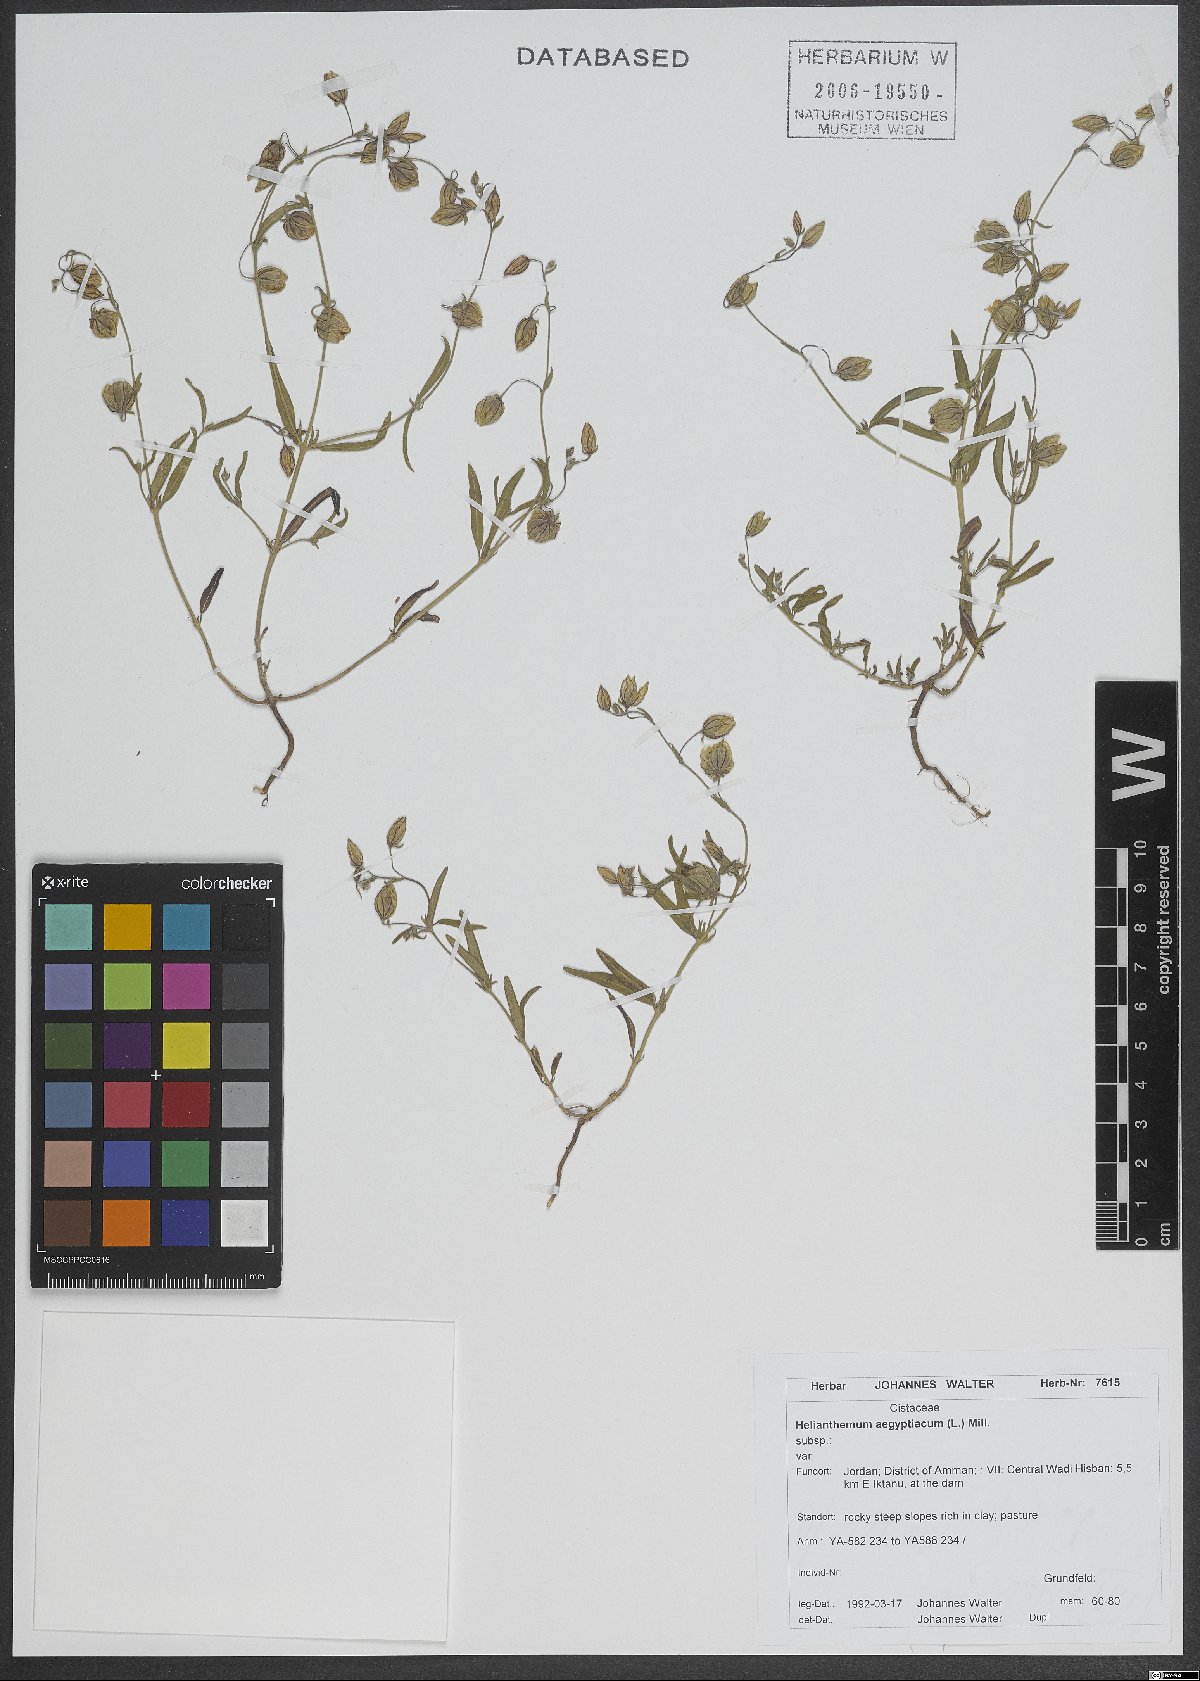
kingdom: Plantae
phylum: Tracheophyta
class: Magnoliopsida
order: Malvales
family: Cistaceae
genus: Helianthemum
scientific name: Helianthemum aegyptiacum
